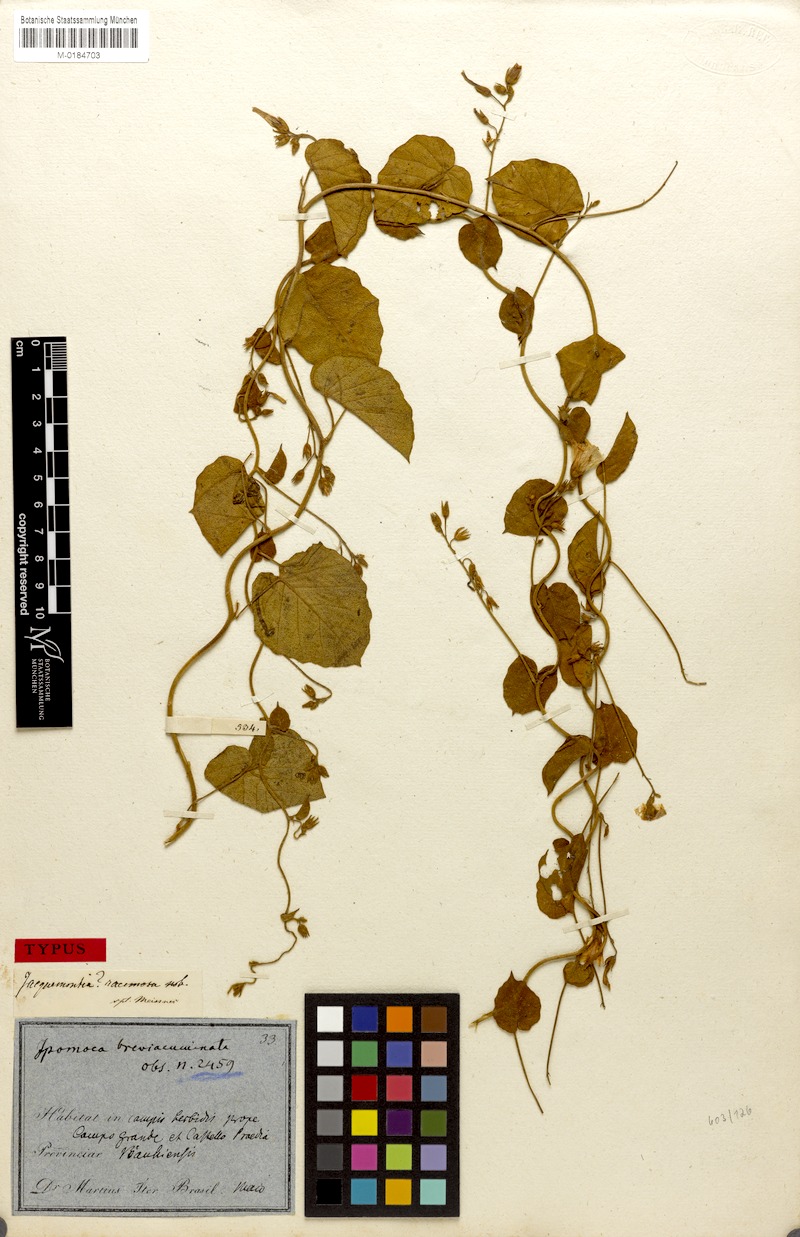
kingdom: Plantae
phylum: Tracheophyta
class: Magnoliopsida
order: Solanales
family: Convolvulaceae
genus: Jacquemontia
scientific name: Jacquemontia evolvuloides
